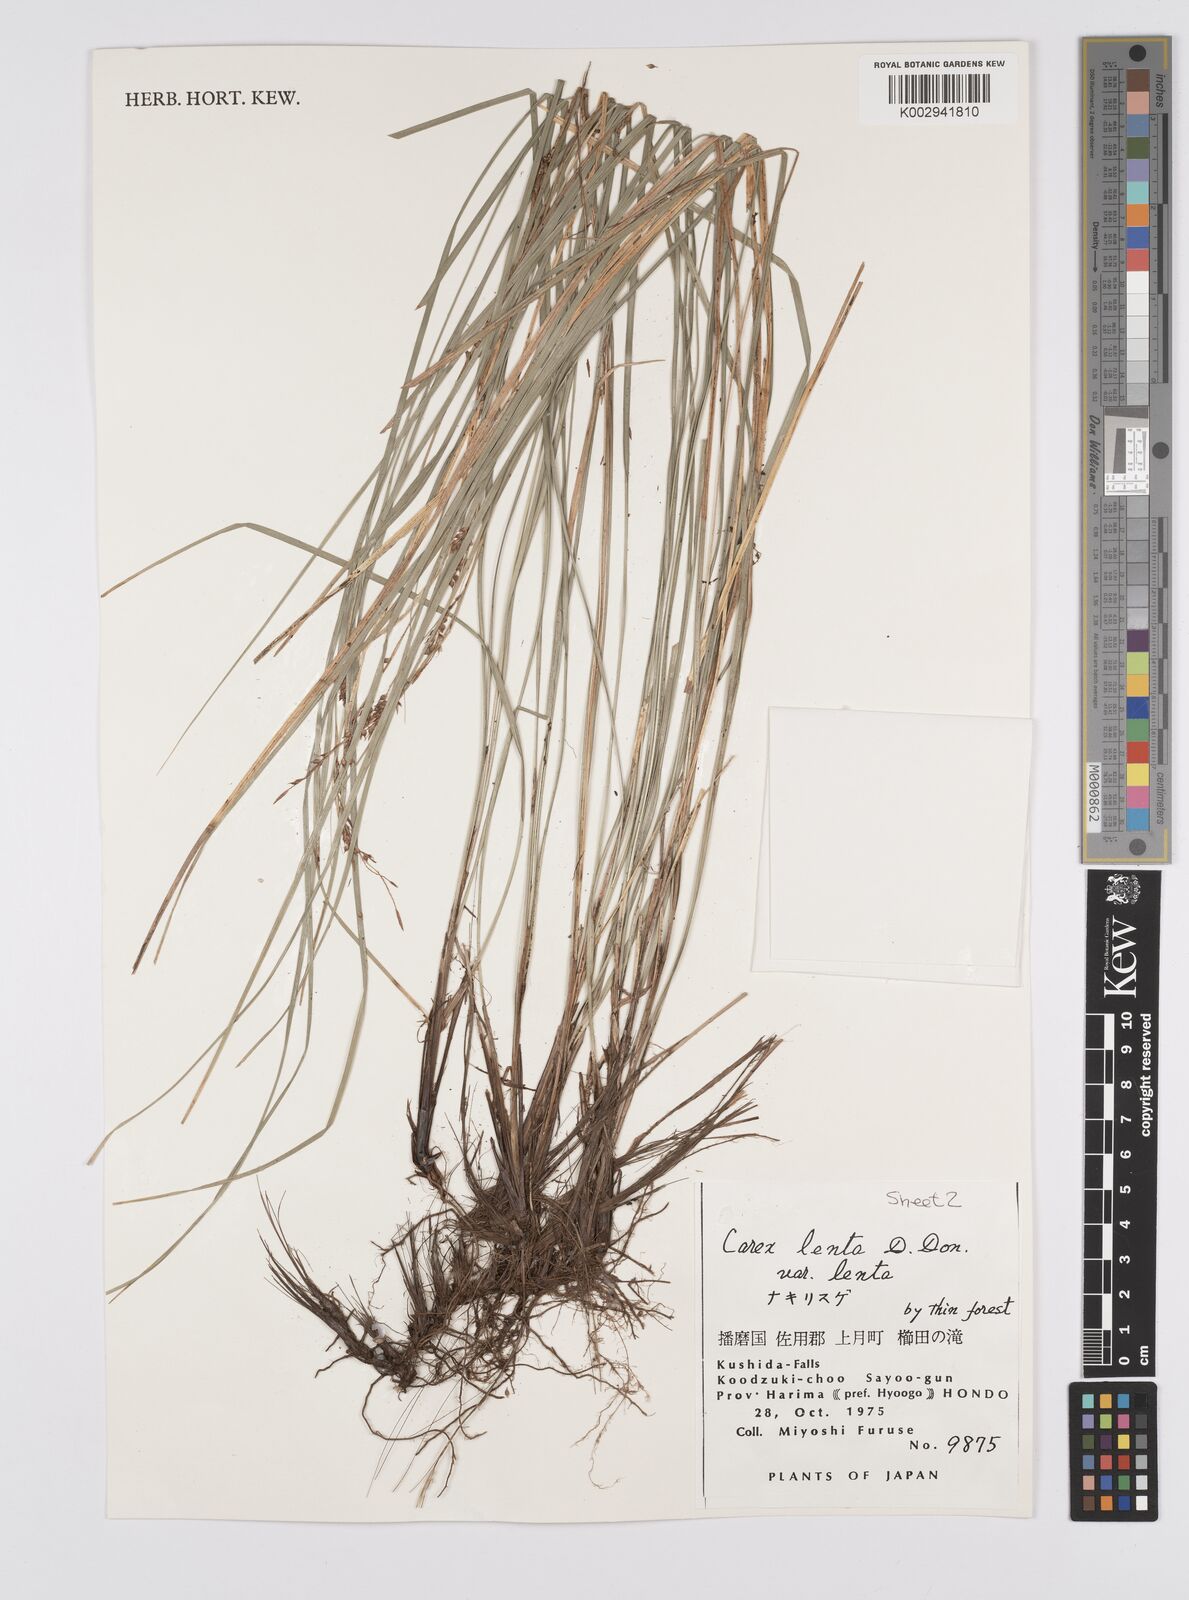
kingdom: Plantae
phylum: Tracheophyta
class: Liliopsida
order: Poales
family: Cyperaceae
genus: Carex
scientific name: Carex brunnea
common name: Greater brown sedge
